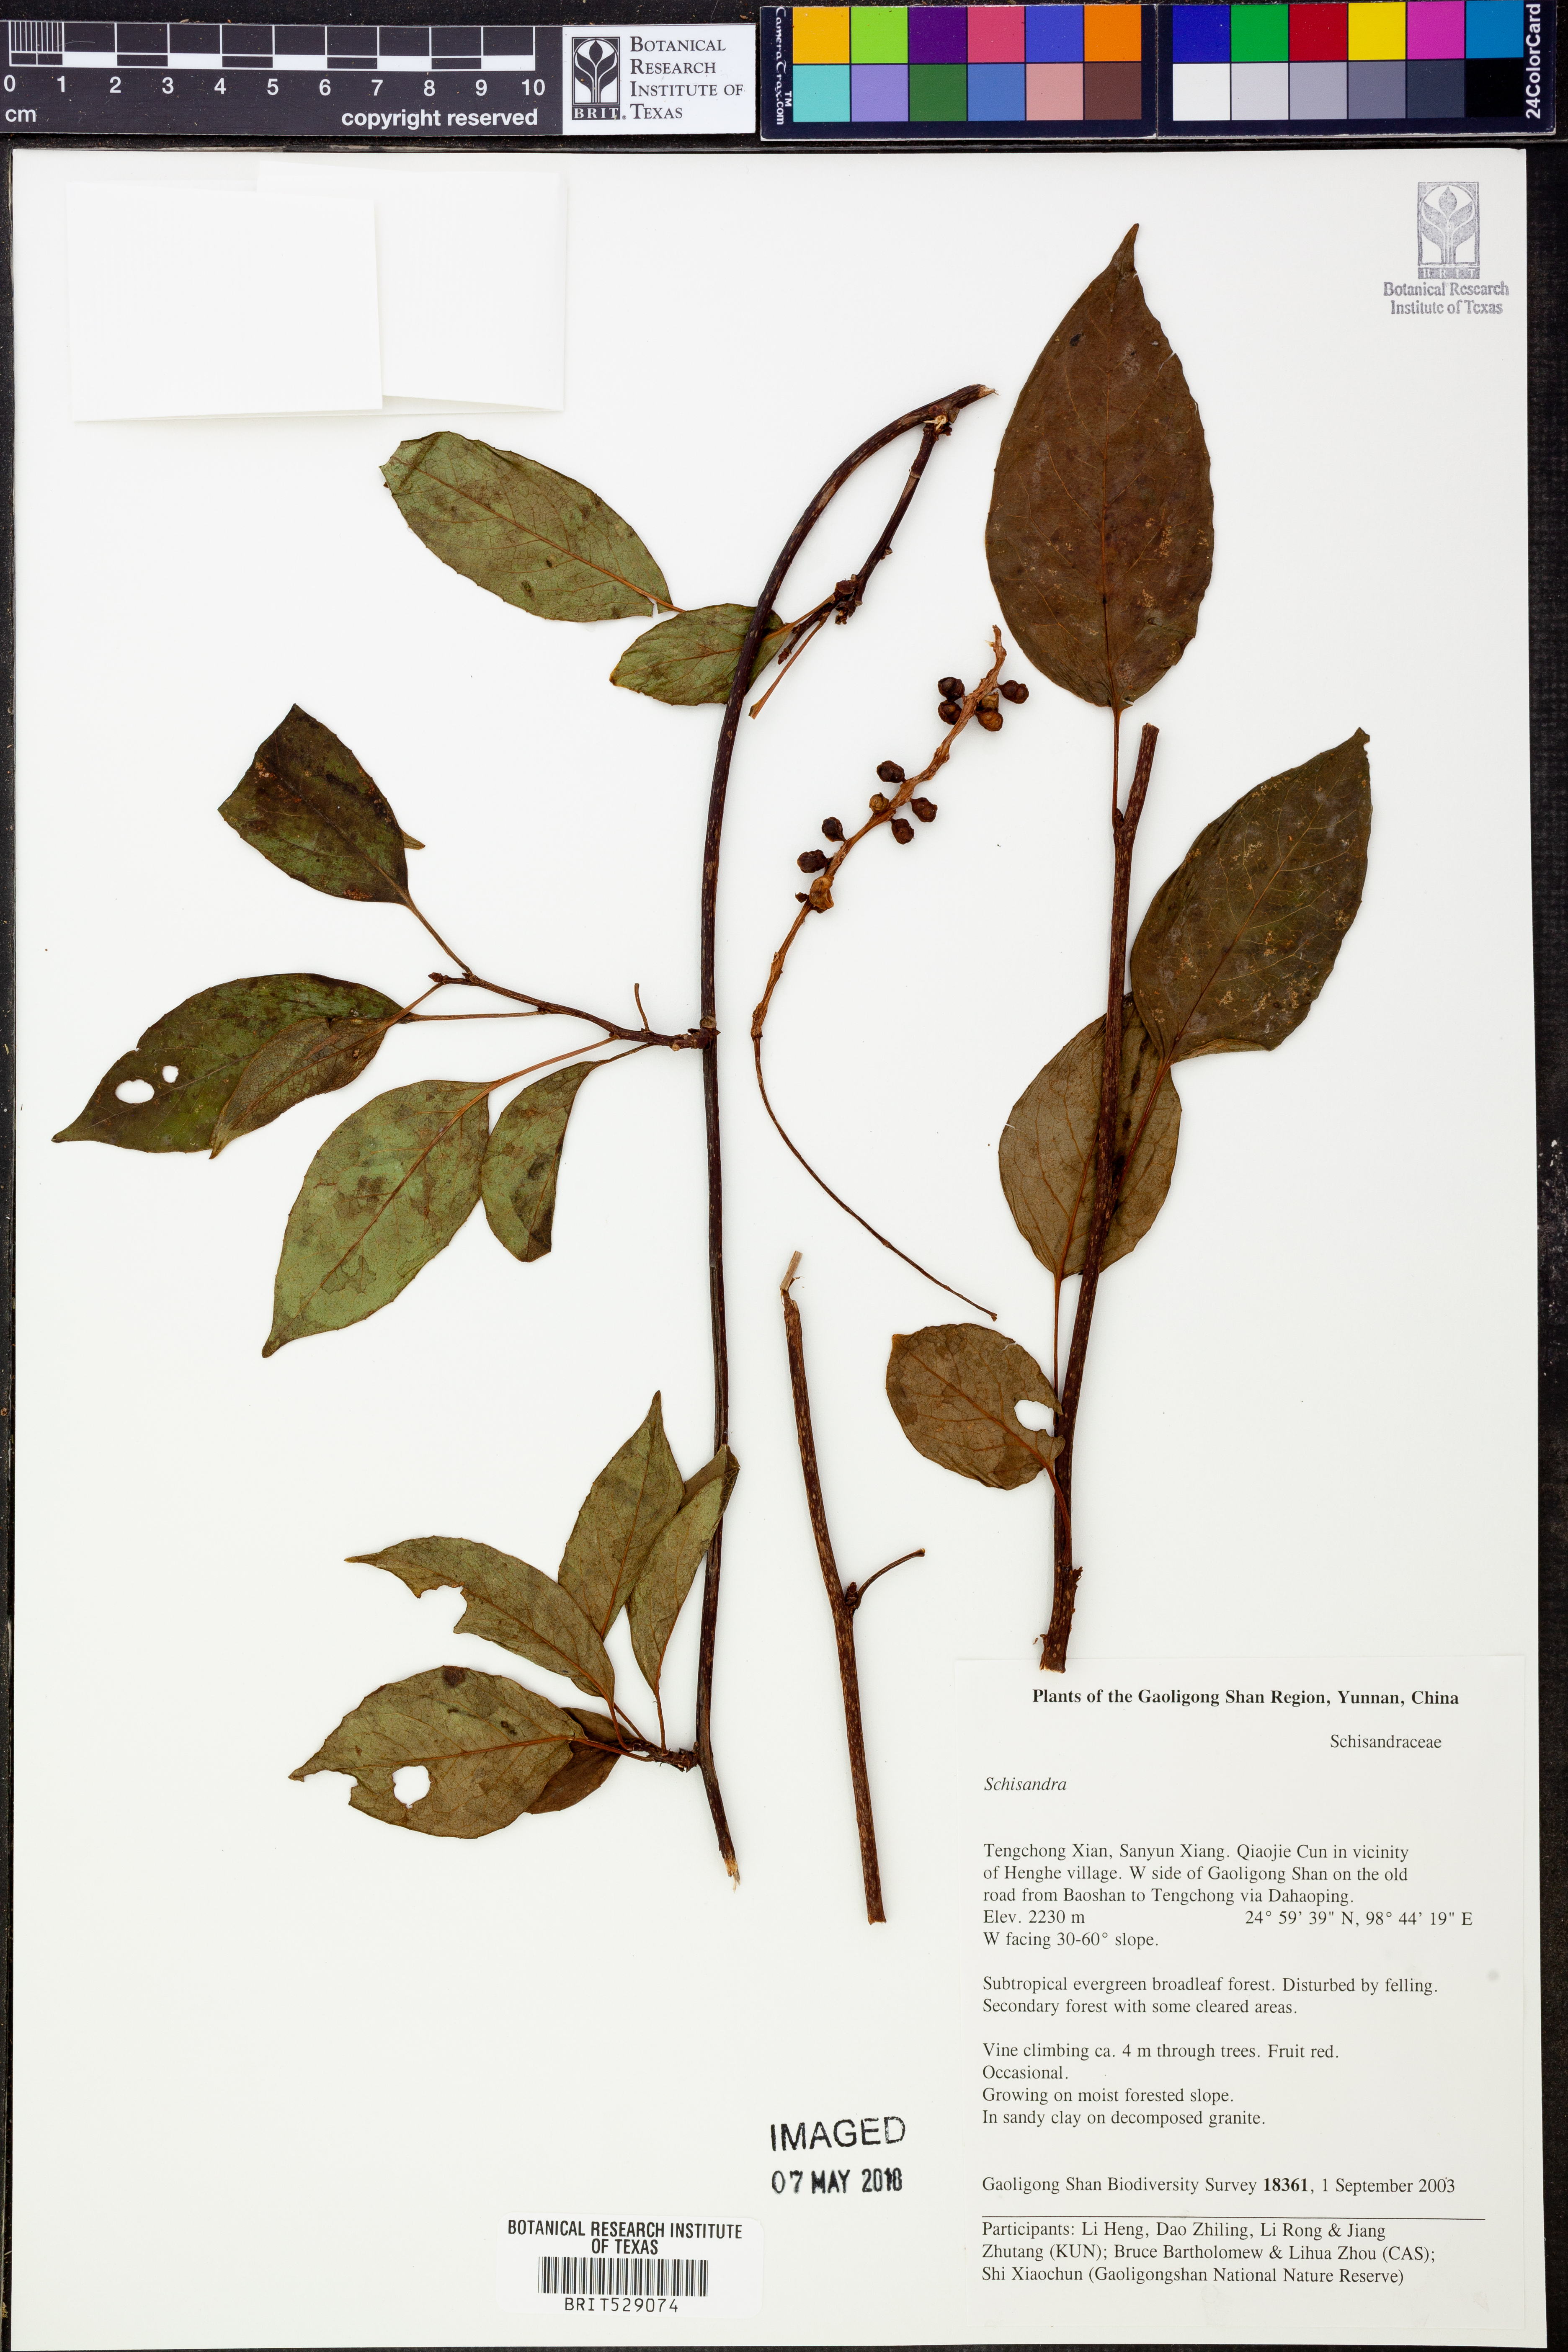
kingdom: Plantae
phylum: Tracheophyta
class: Magnoliopsida
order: Austrobaileyales
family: Schisandraceae
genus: Schisandra
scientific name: Schisandra
